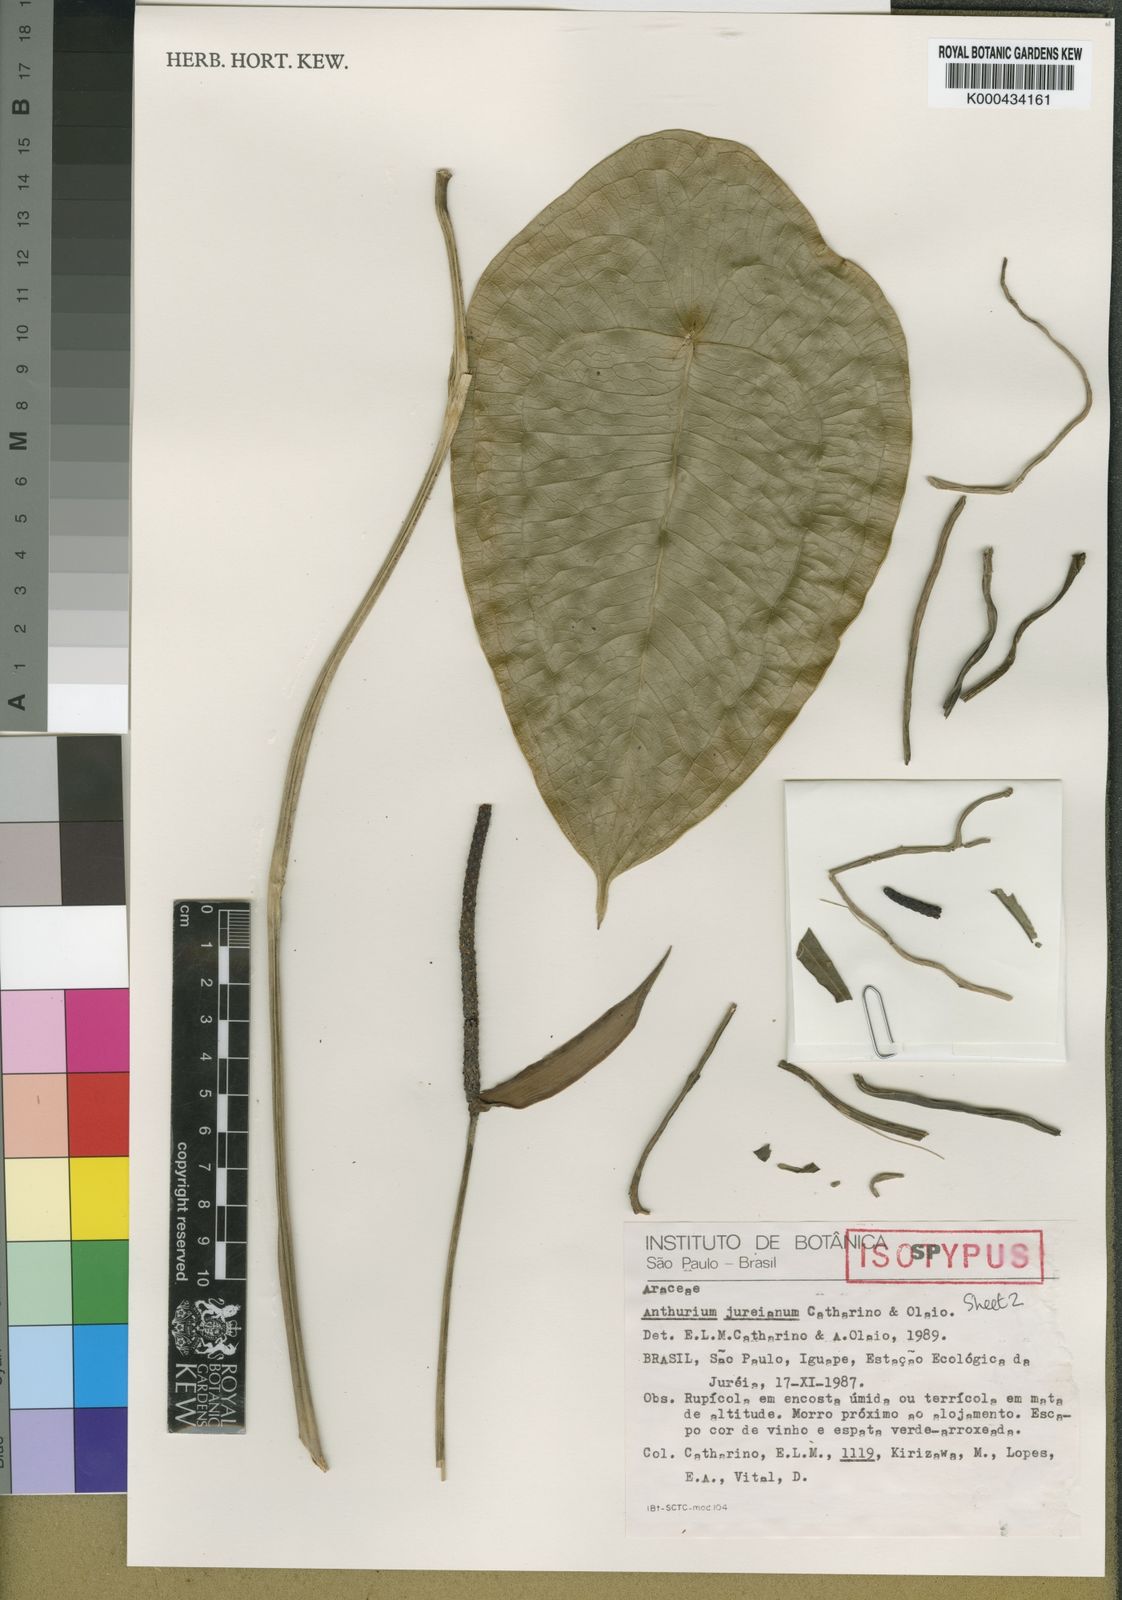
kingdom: Plantae
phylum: Tracheophyta
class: Liliopsida
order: Alismatales
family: Araceae
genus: Anthurium
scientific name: Anthurium jureianum
